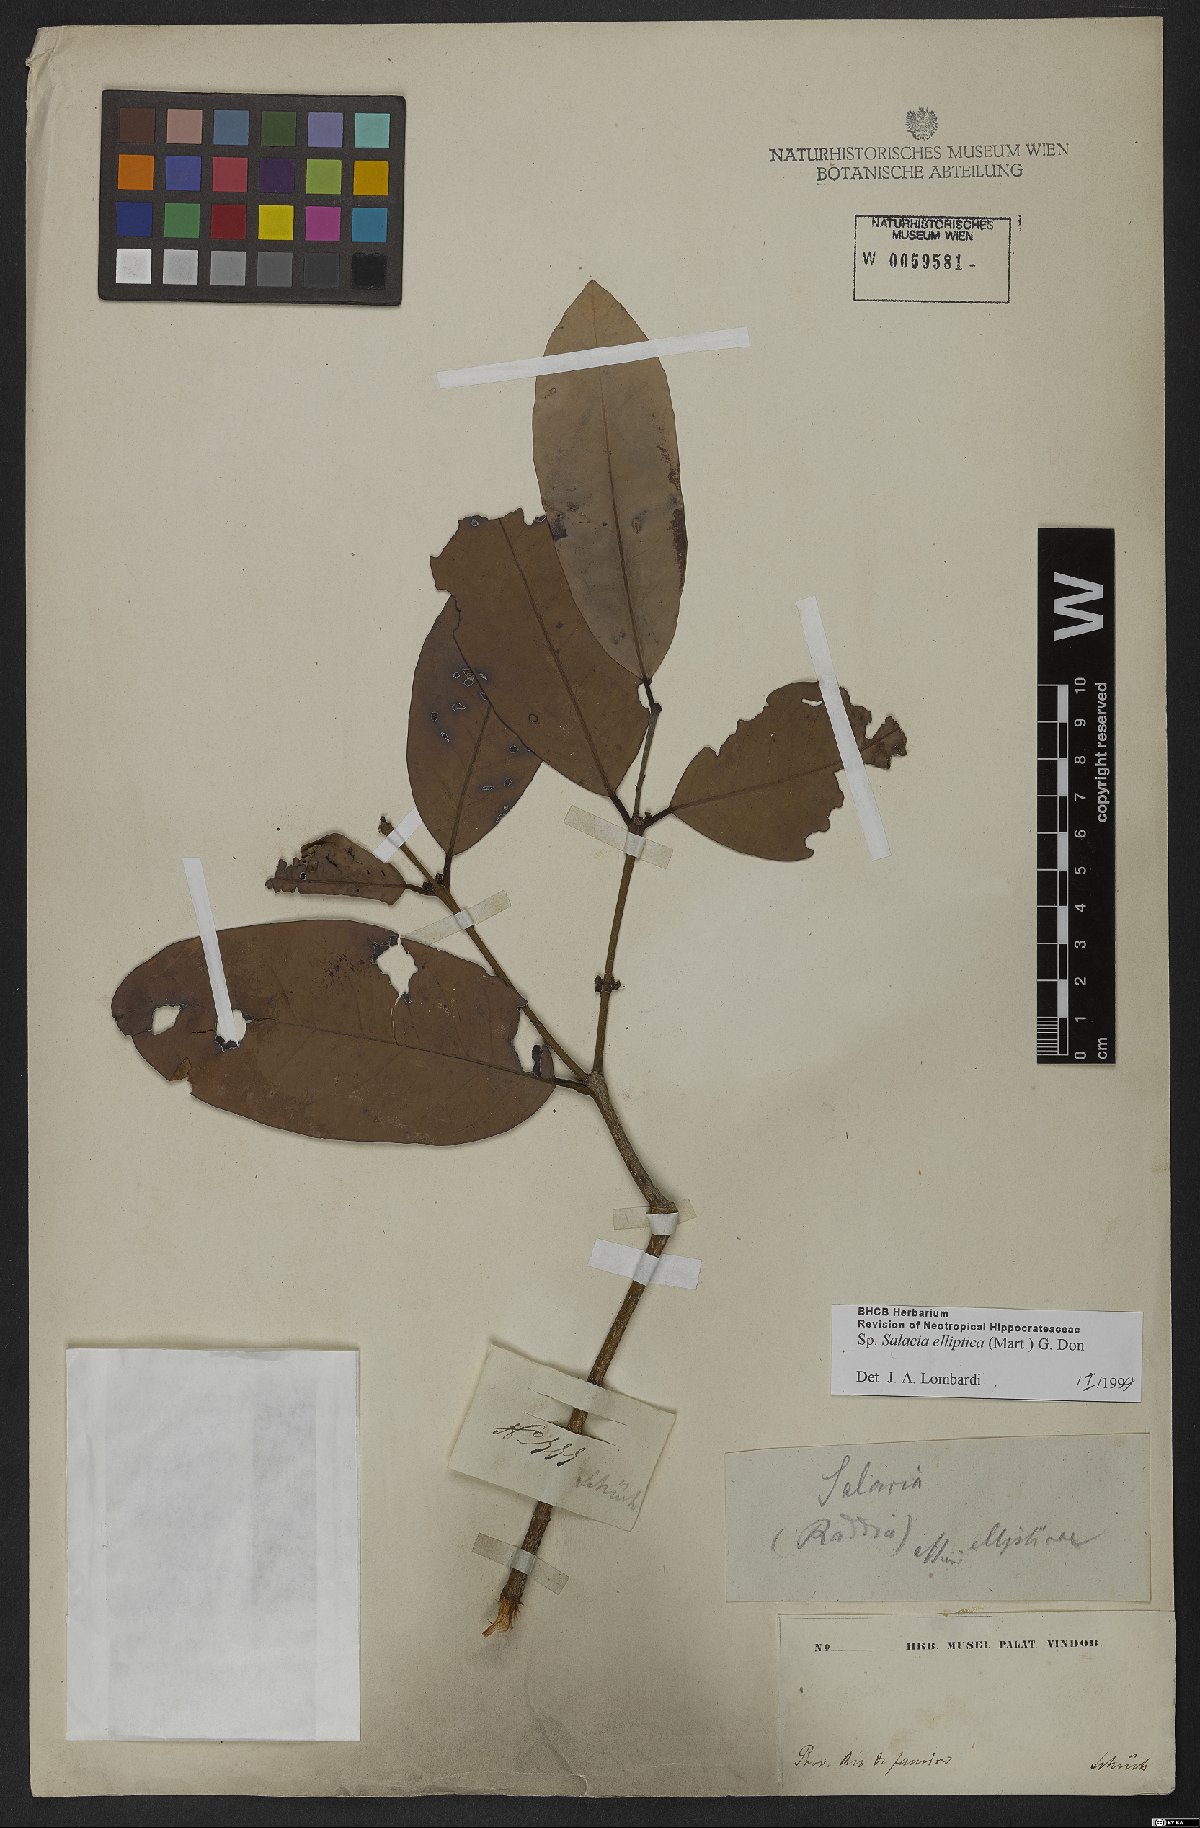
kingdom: Plantae
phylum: Tracheophyta
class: Magnoliopsida
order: Celastrales
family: Celastraceae
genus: Salacia
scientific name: Salacia elliptica
